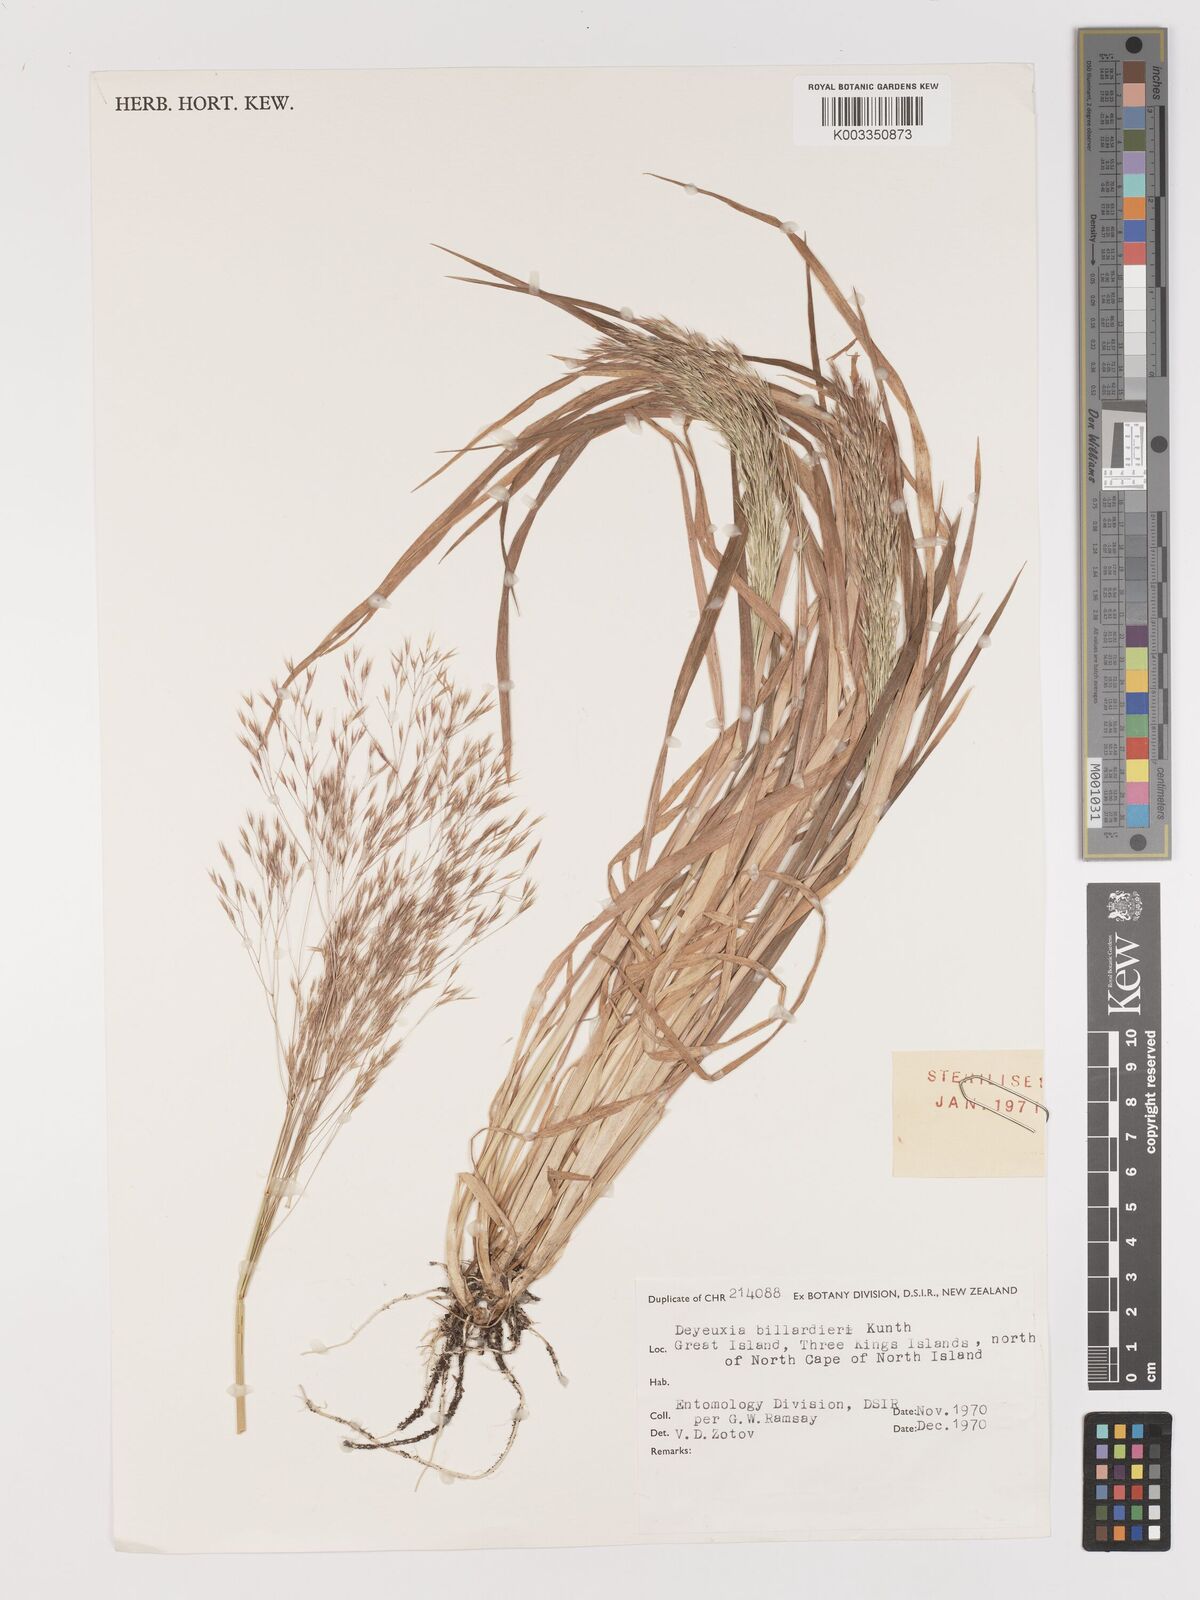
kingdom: Plantae
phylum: Tracheophyta
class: Liliopsida
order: Poales
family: Poaceae
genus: Lachnagrostis
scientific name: Lachnagrostis billardierei
